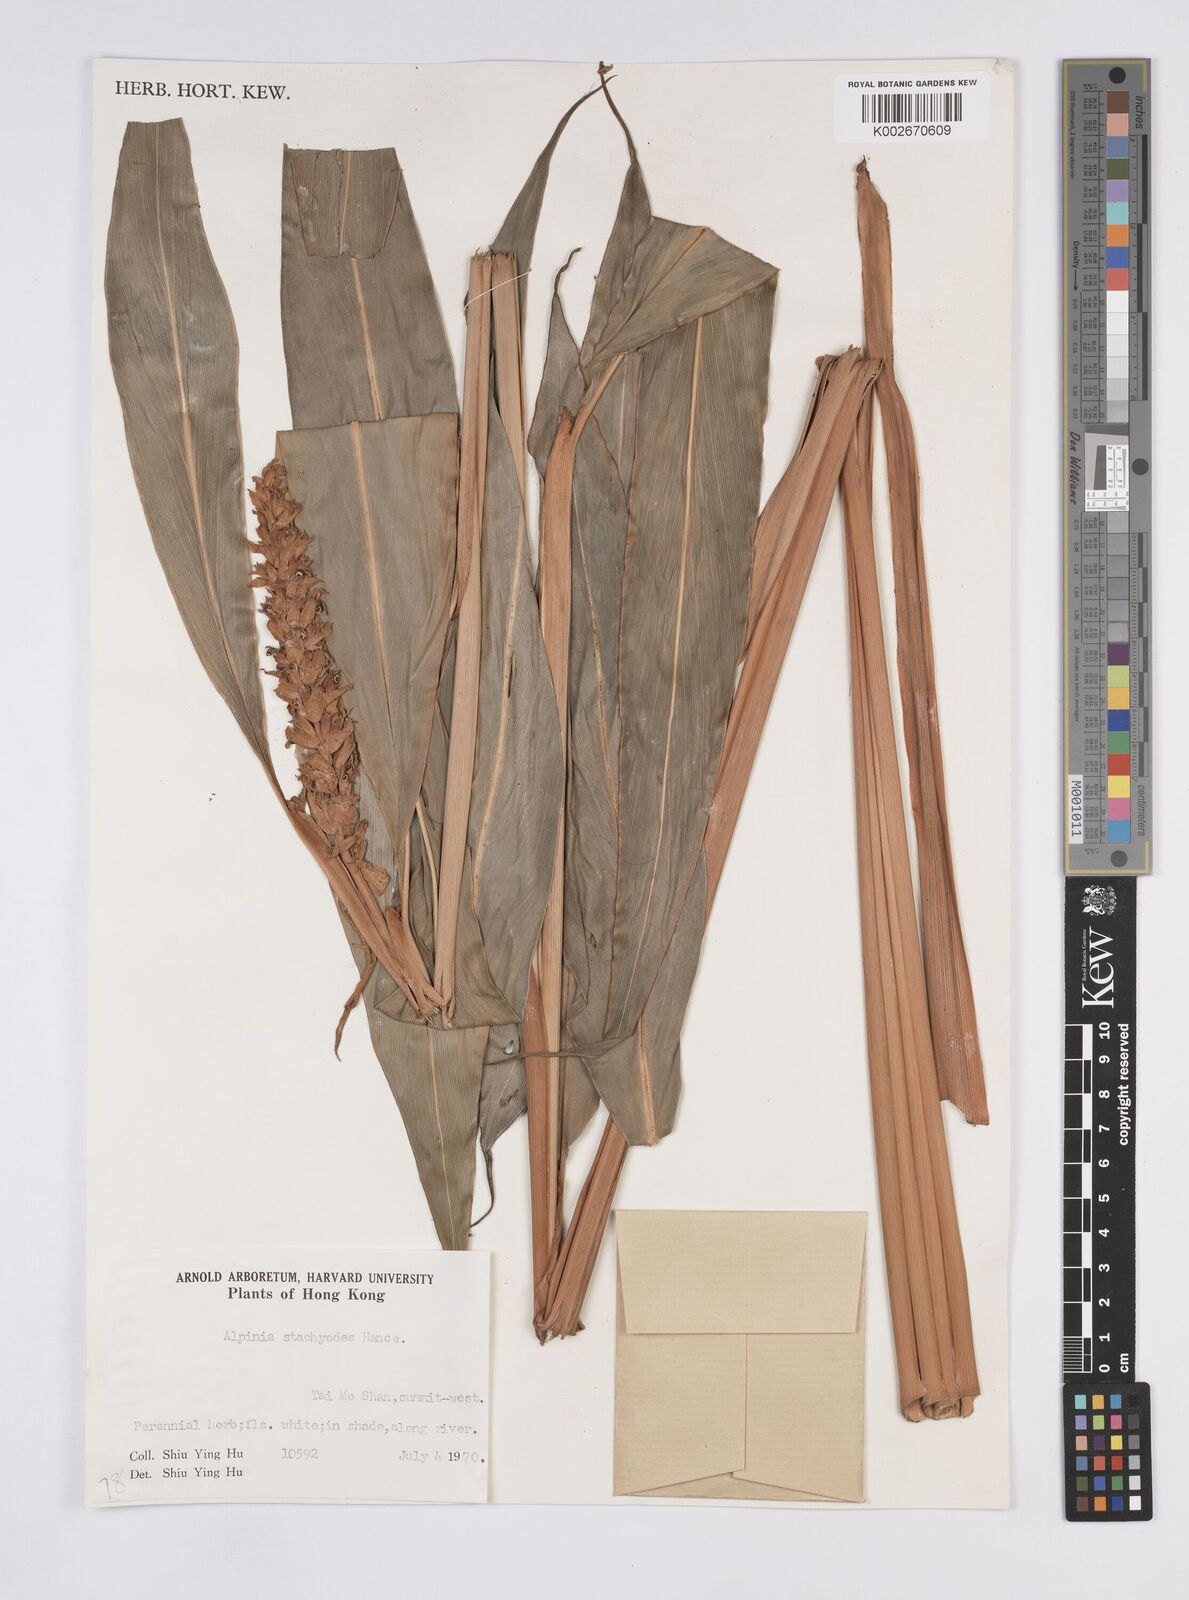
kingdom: Plantae
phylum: Tracheophyta
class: Liliopsida
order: Zingiberales
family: Zingiberaceae
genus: Alpinia
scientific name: Alpinia stachyodes
